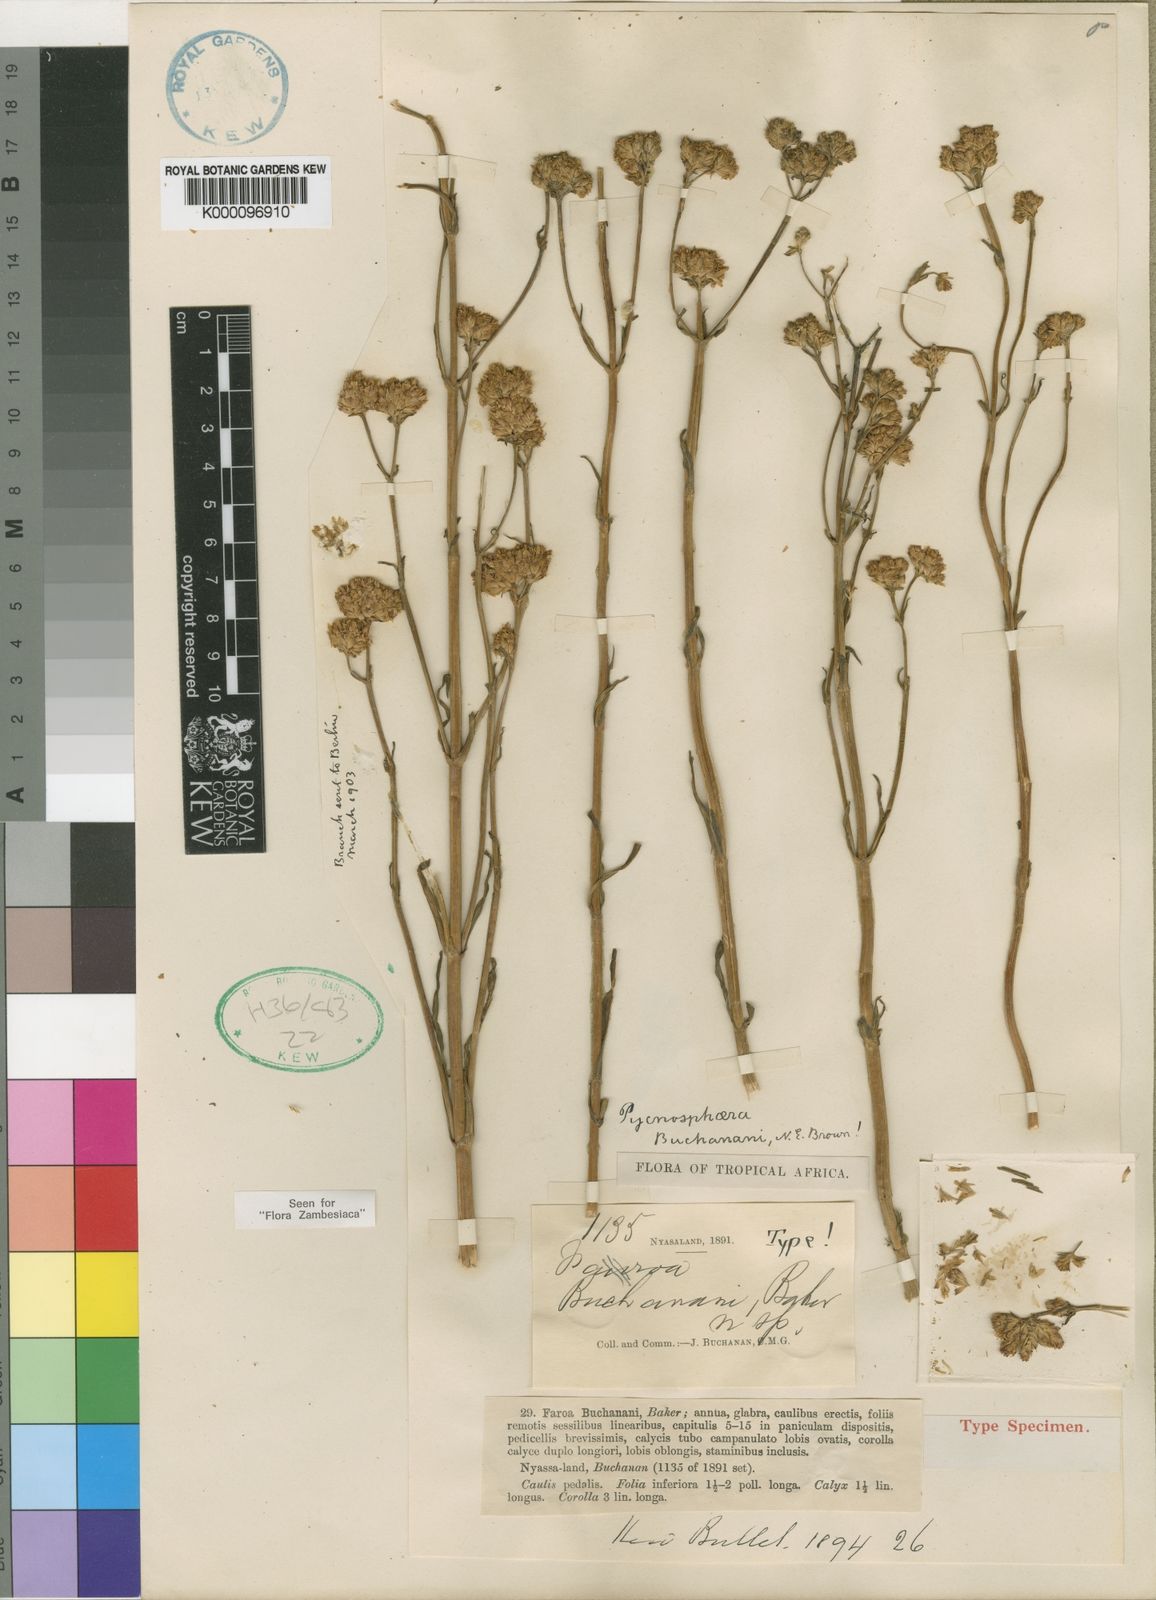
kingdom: Plantae
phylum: Tracheophyta
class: Magnoliopsida
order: Gentianales
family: Gentianaceae
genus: Pycnosphaera
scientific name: Pycnosphaera buchananii
